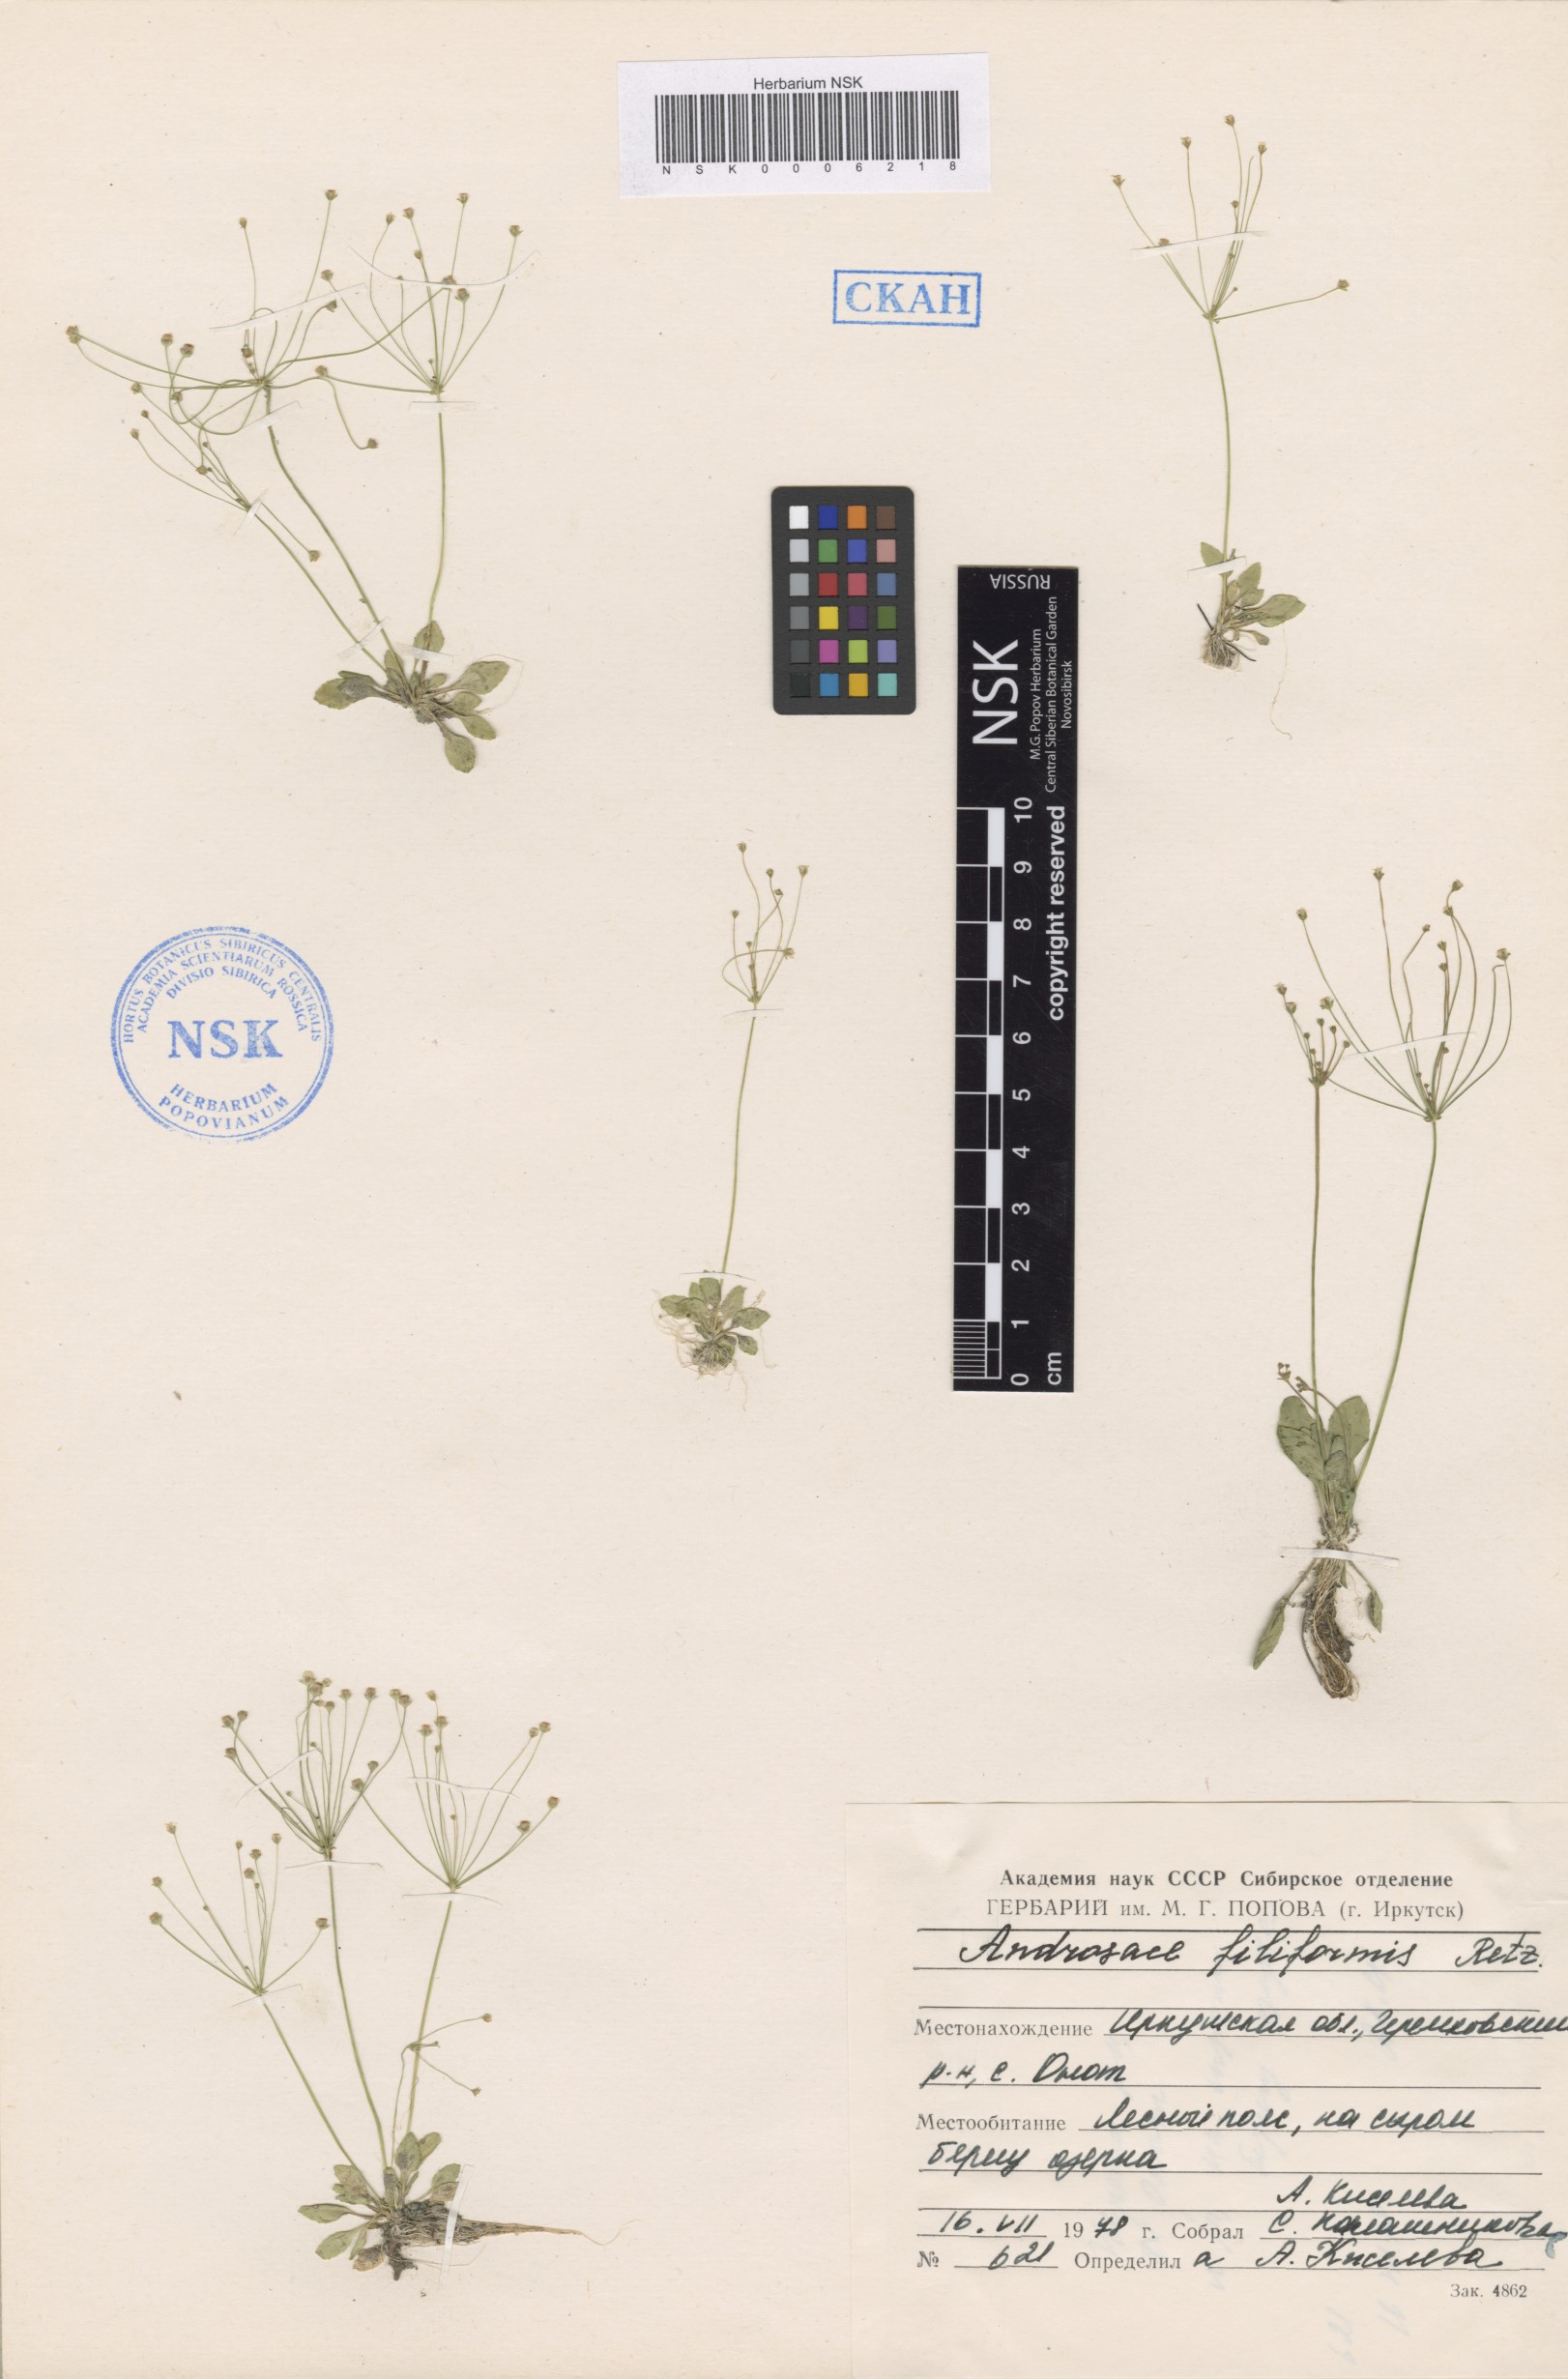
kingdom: Plantae
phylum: Tracheophyta
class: Magnoliopsida
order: Ericales
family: Primulaceae
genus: Androsace
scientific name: Androsace filiformis
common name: Filiform rock jasmine
